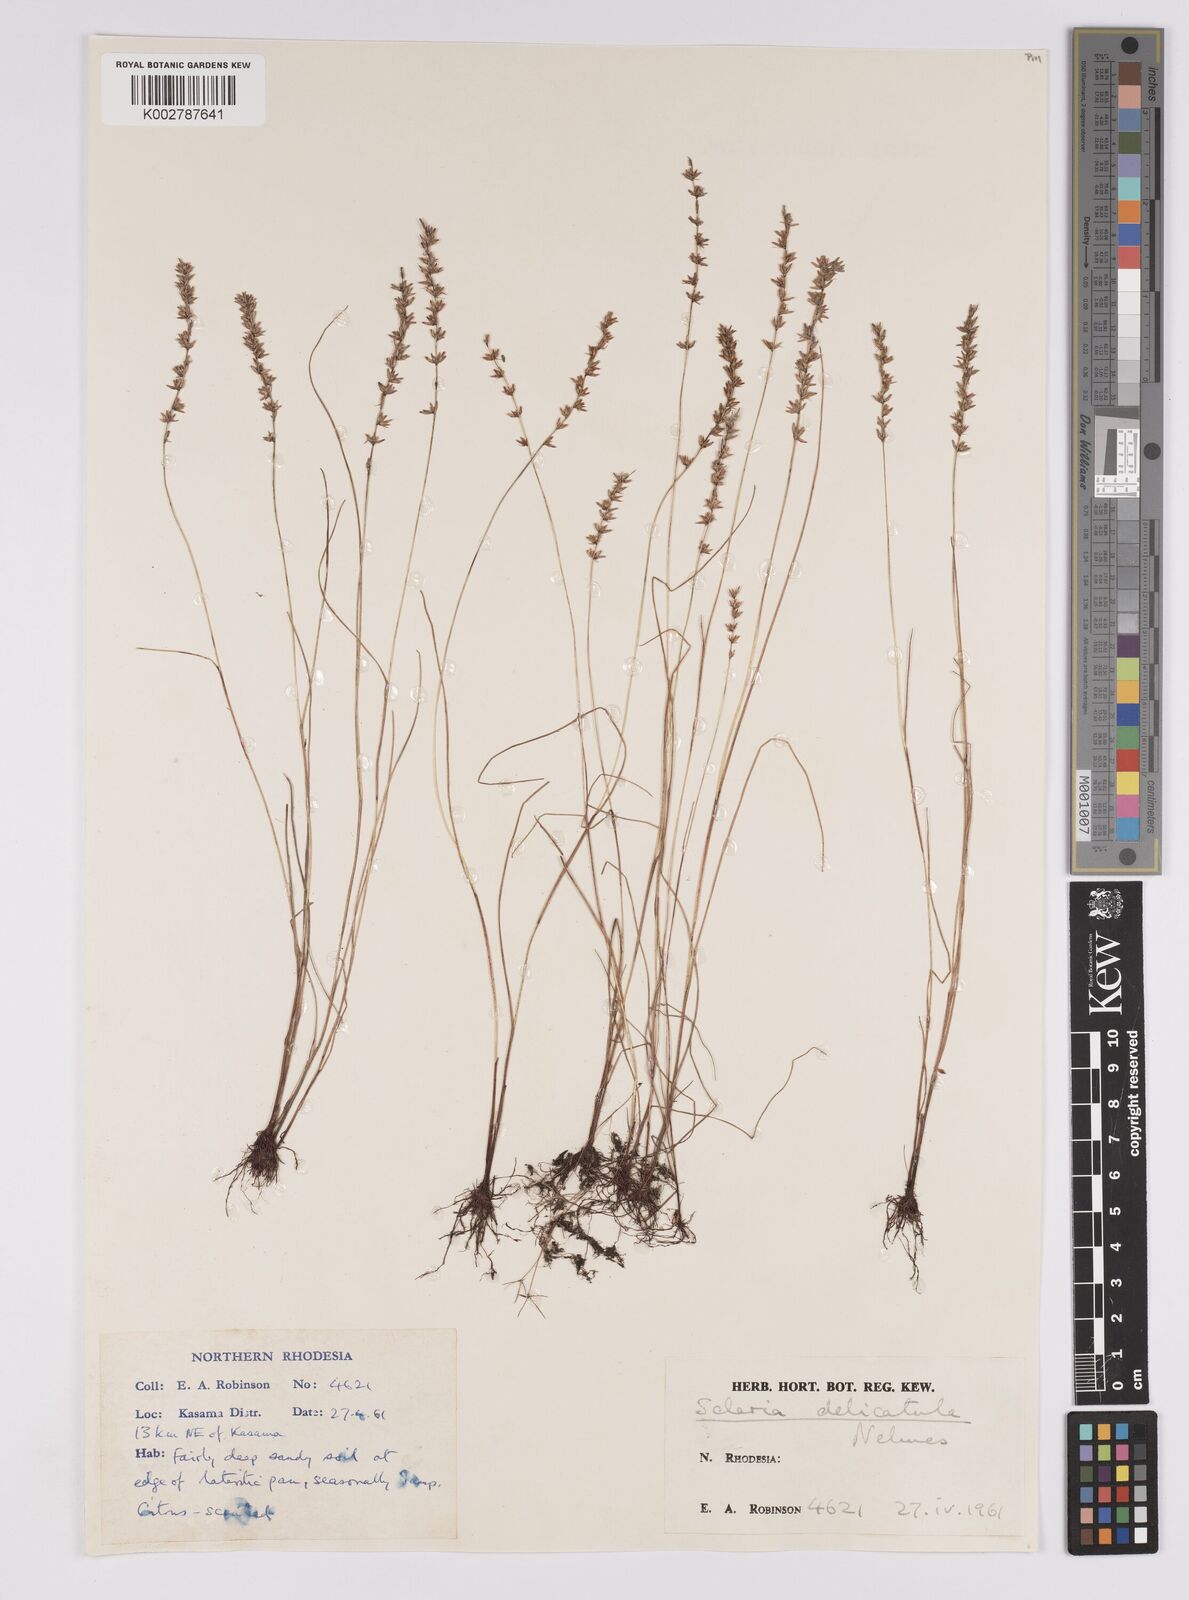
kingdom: Plantae
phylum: Tracheophyta
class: Liliopsida
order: Poales
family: Cyperaceae
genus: Scleria
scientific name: Scleria delicatula
